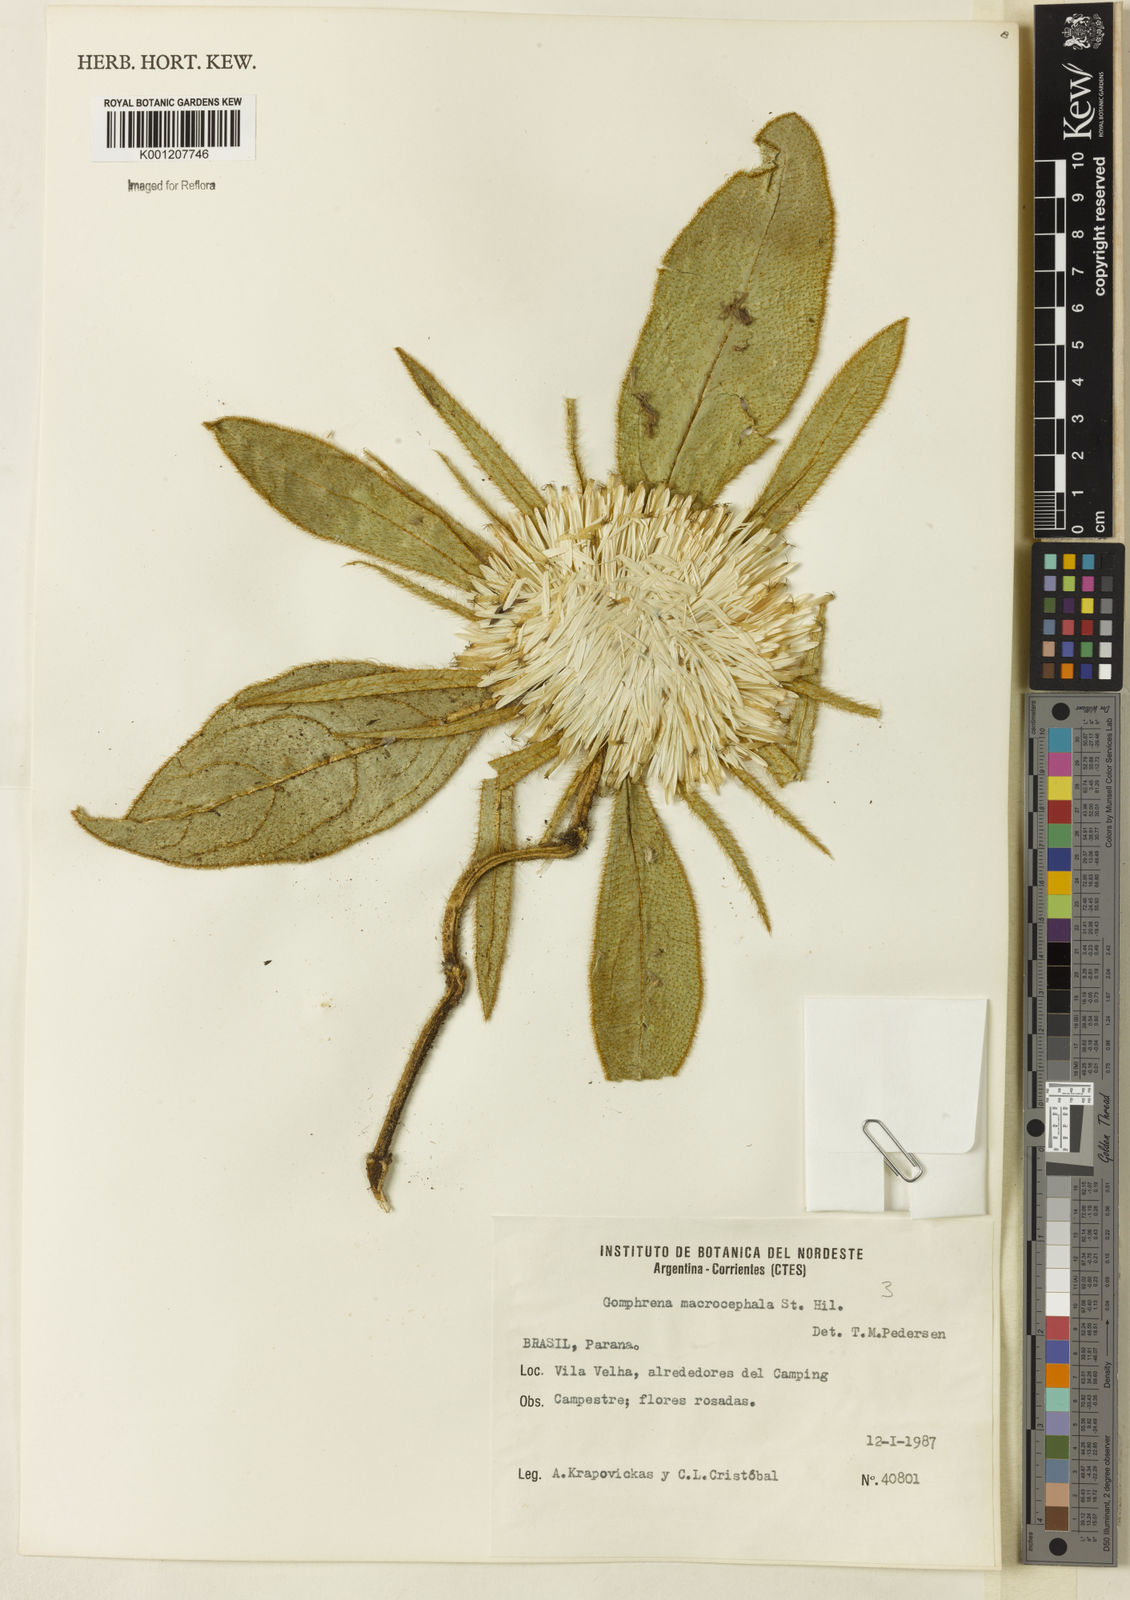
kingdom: Plantae
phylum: Tracheophyta
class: Magnoliopsida
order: Caryophyllales
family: Amaranthaceae
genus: Gomphrena
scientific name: Gomphrena macrocephala
